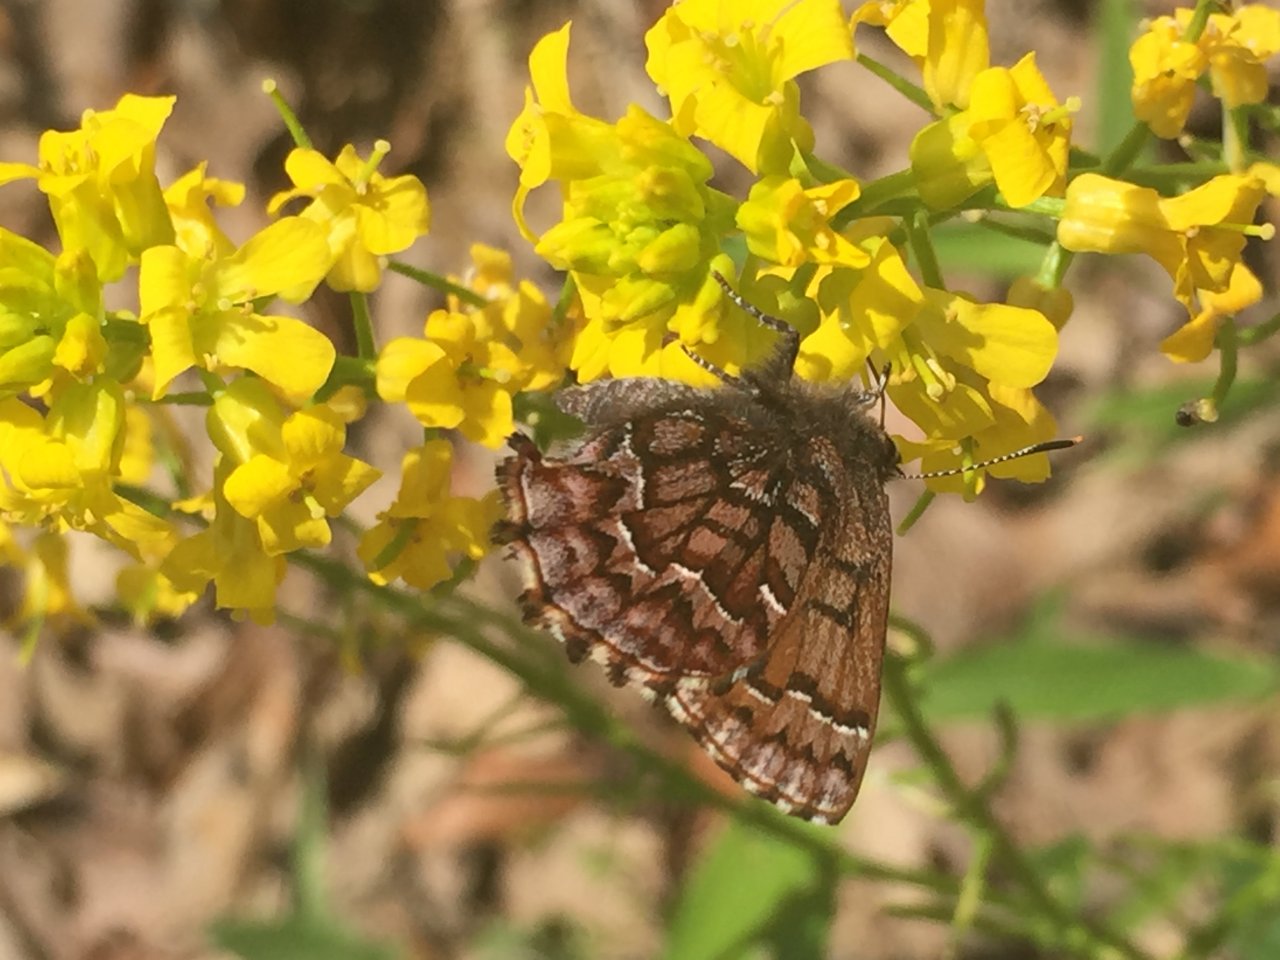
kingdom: Animalia
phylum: Arthropoda
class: Insecta
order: Lepidoptera
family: Lycaenidae
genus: Incisalia
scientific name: Incisalia niphon
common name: Eastern Pine Elfin
